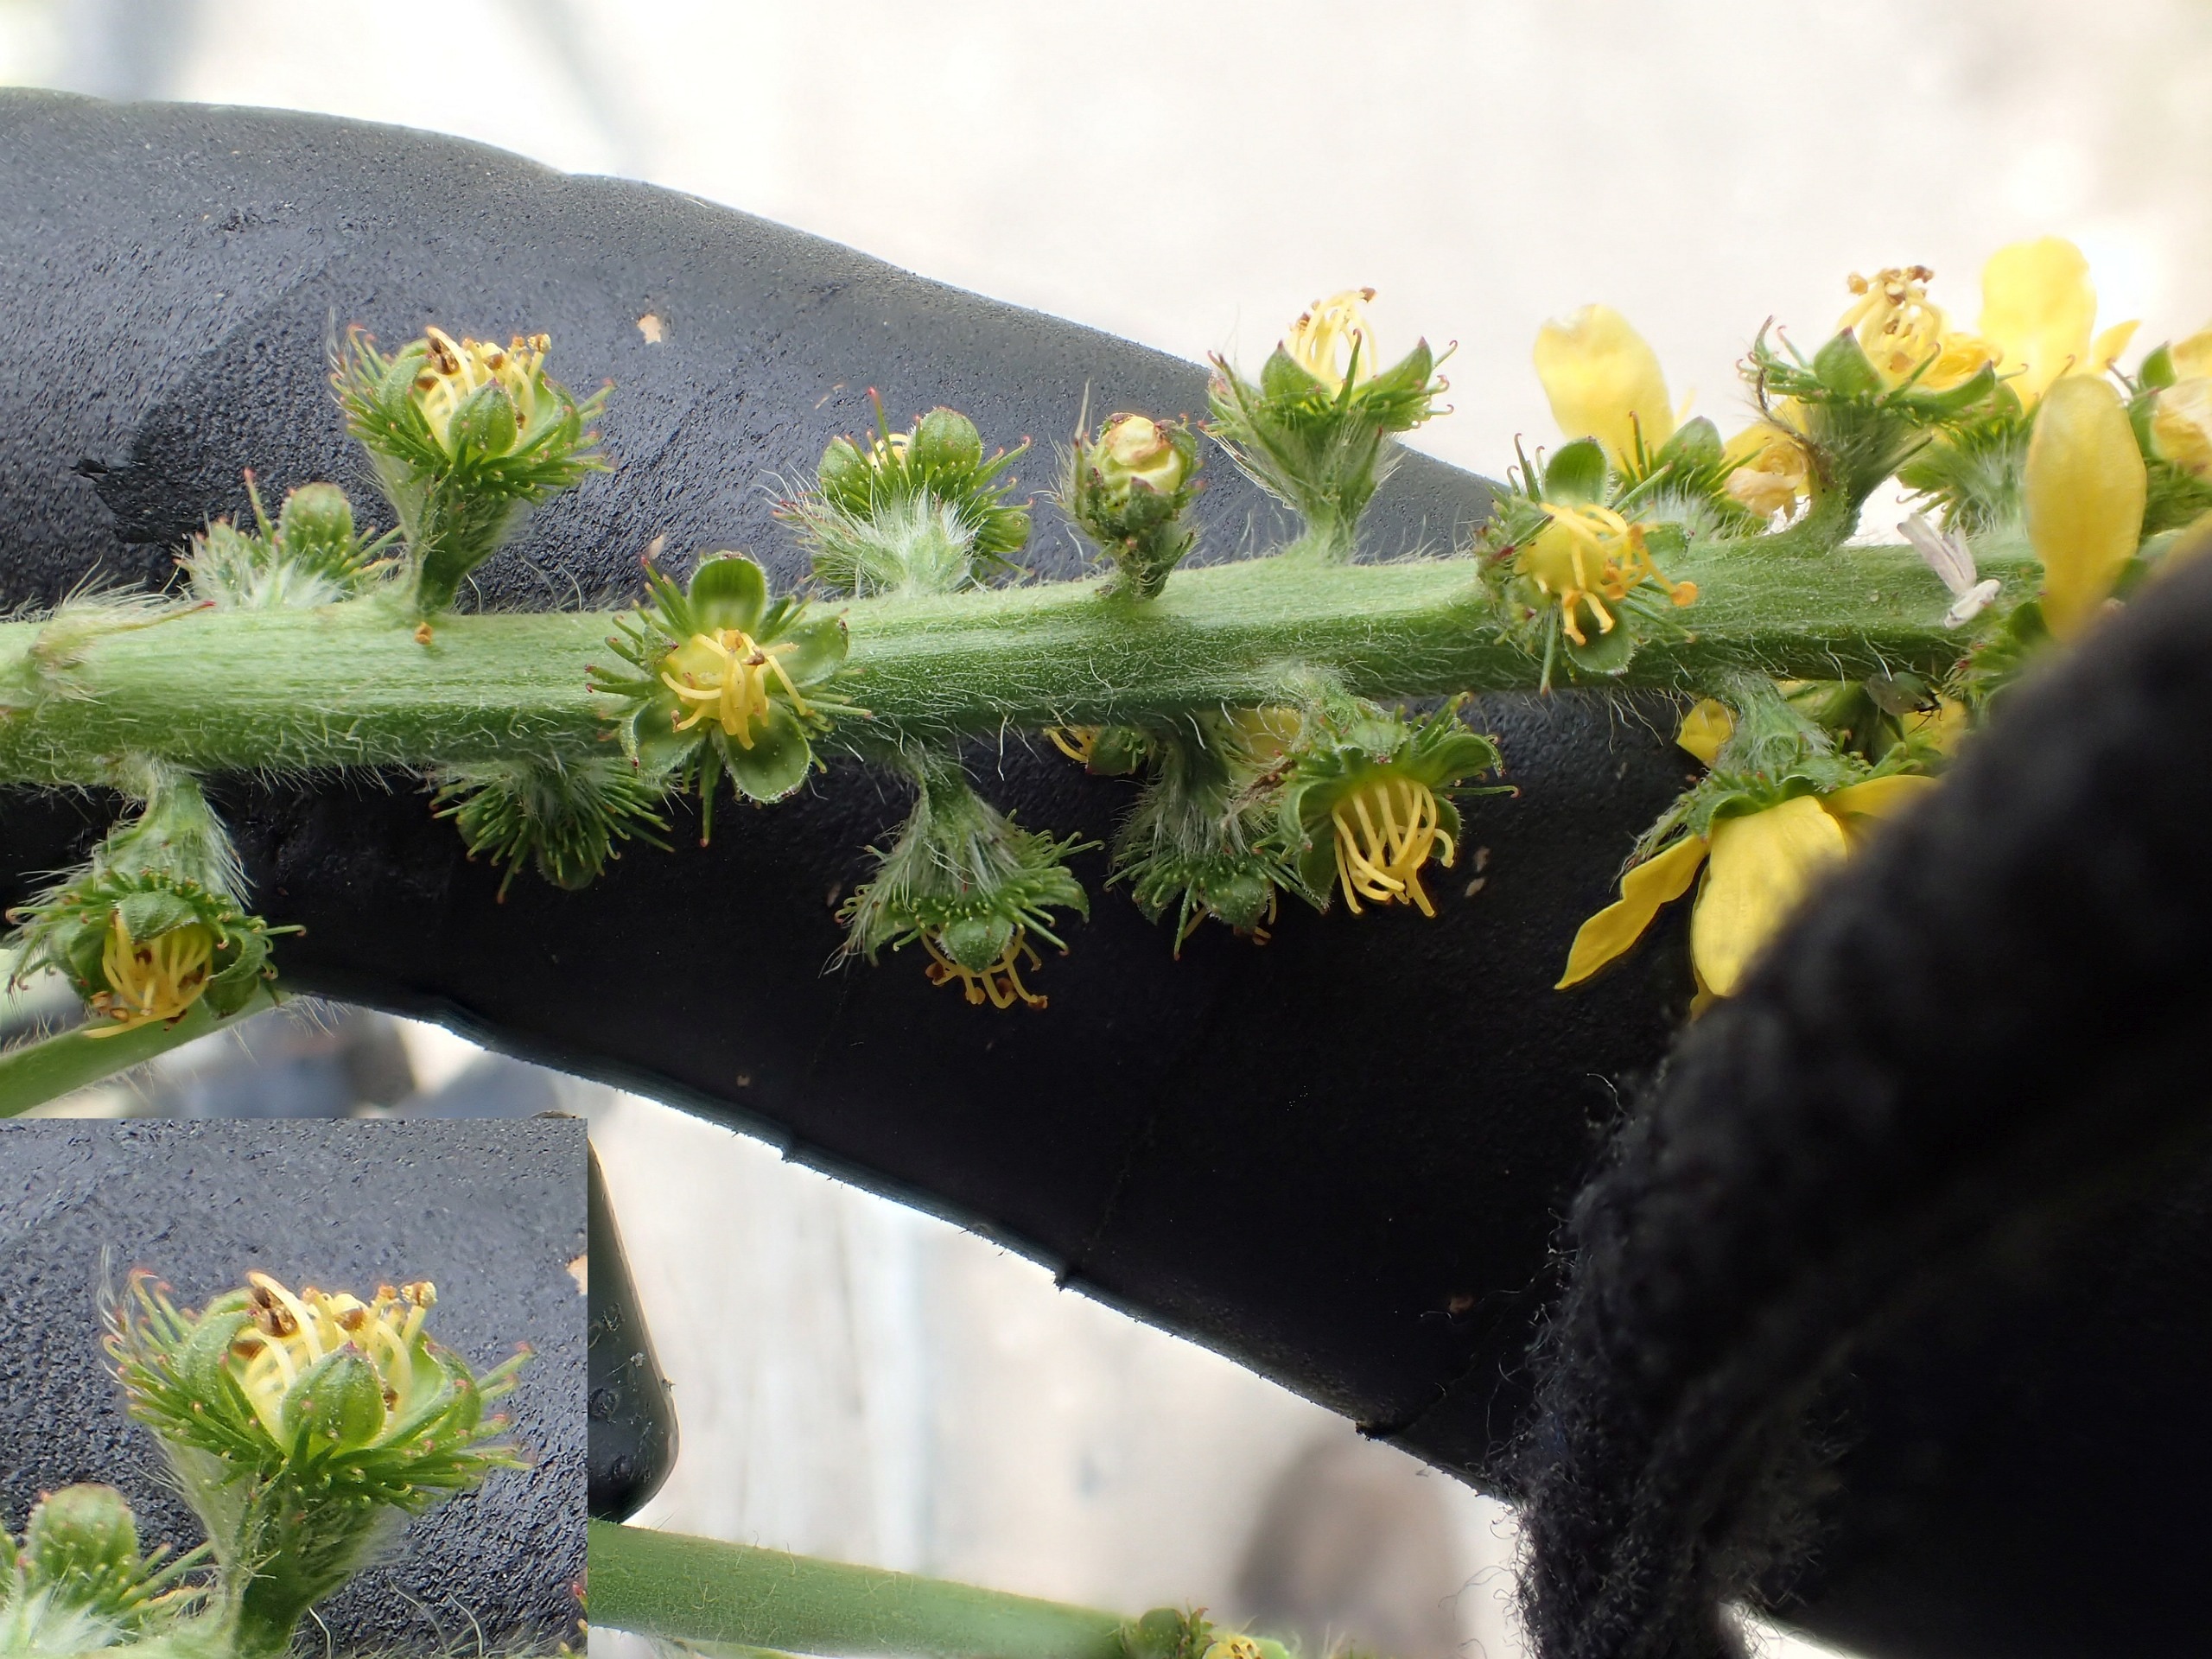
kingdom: Plantae
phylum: Tracheophyta
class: Magnoliopsida
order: Rosales
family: Rosaceae
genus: Agrimonia
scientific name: Agrimonia eupatoria
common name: Almindelig agermåne
